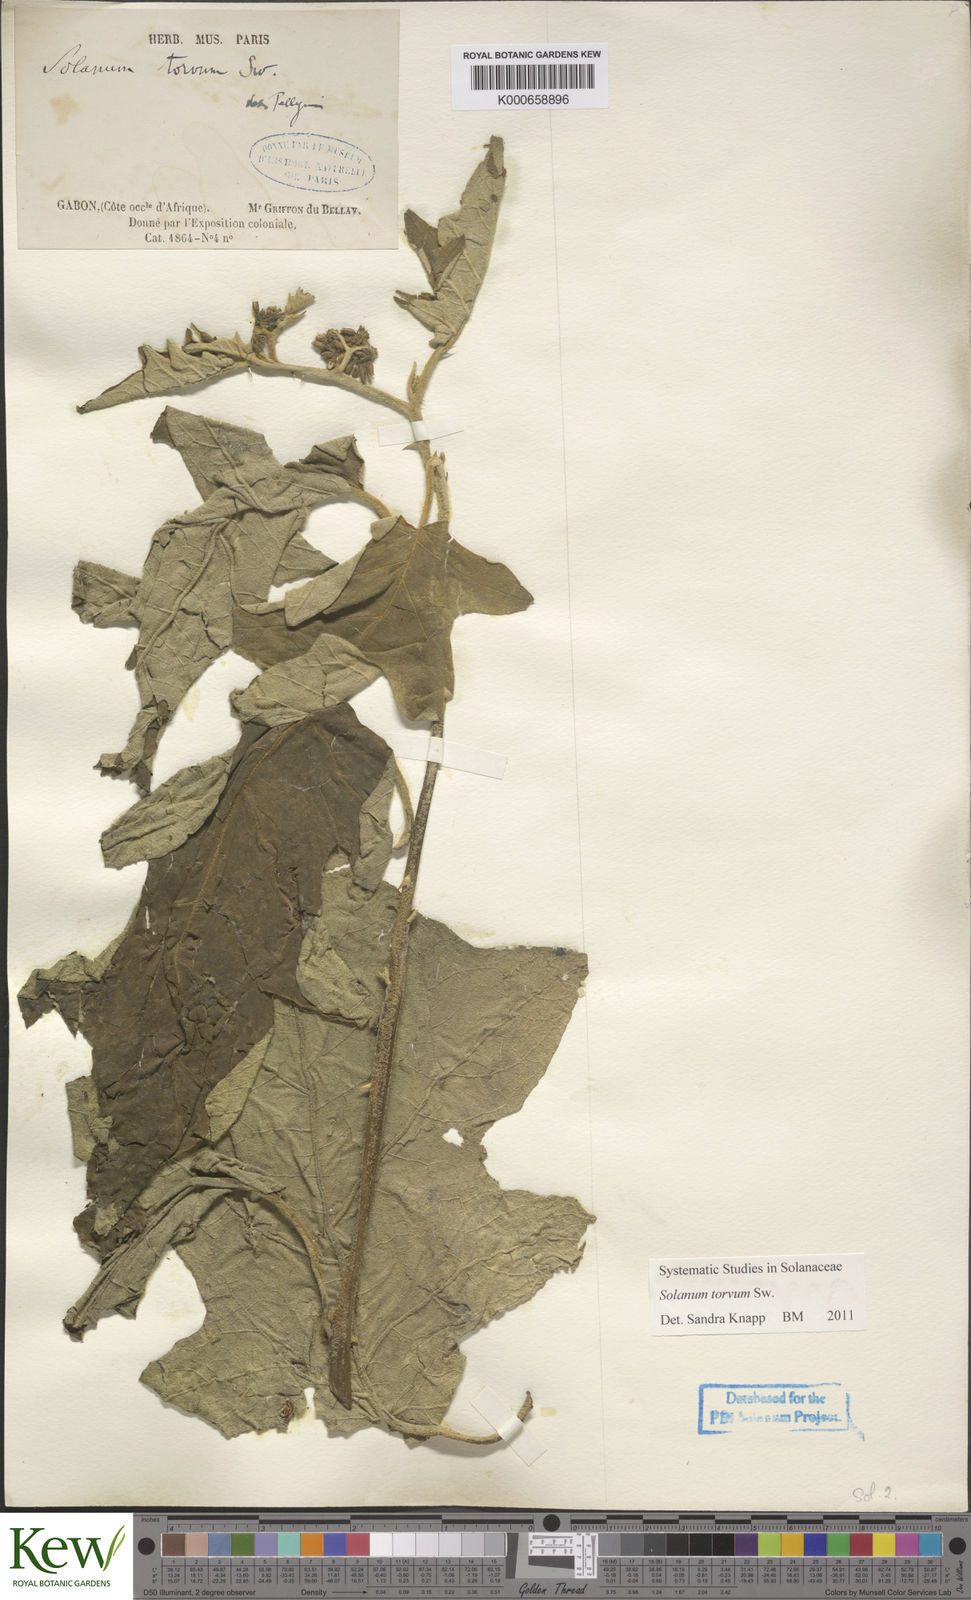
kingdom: Plantae
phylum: Tracheophyta
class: Magnoliopsida
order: Solanales
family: Solanaceae
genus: Solanum
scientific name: Solanum torvum
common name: Turkey berry
